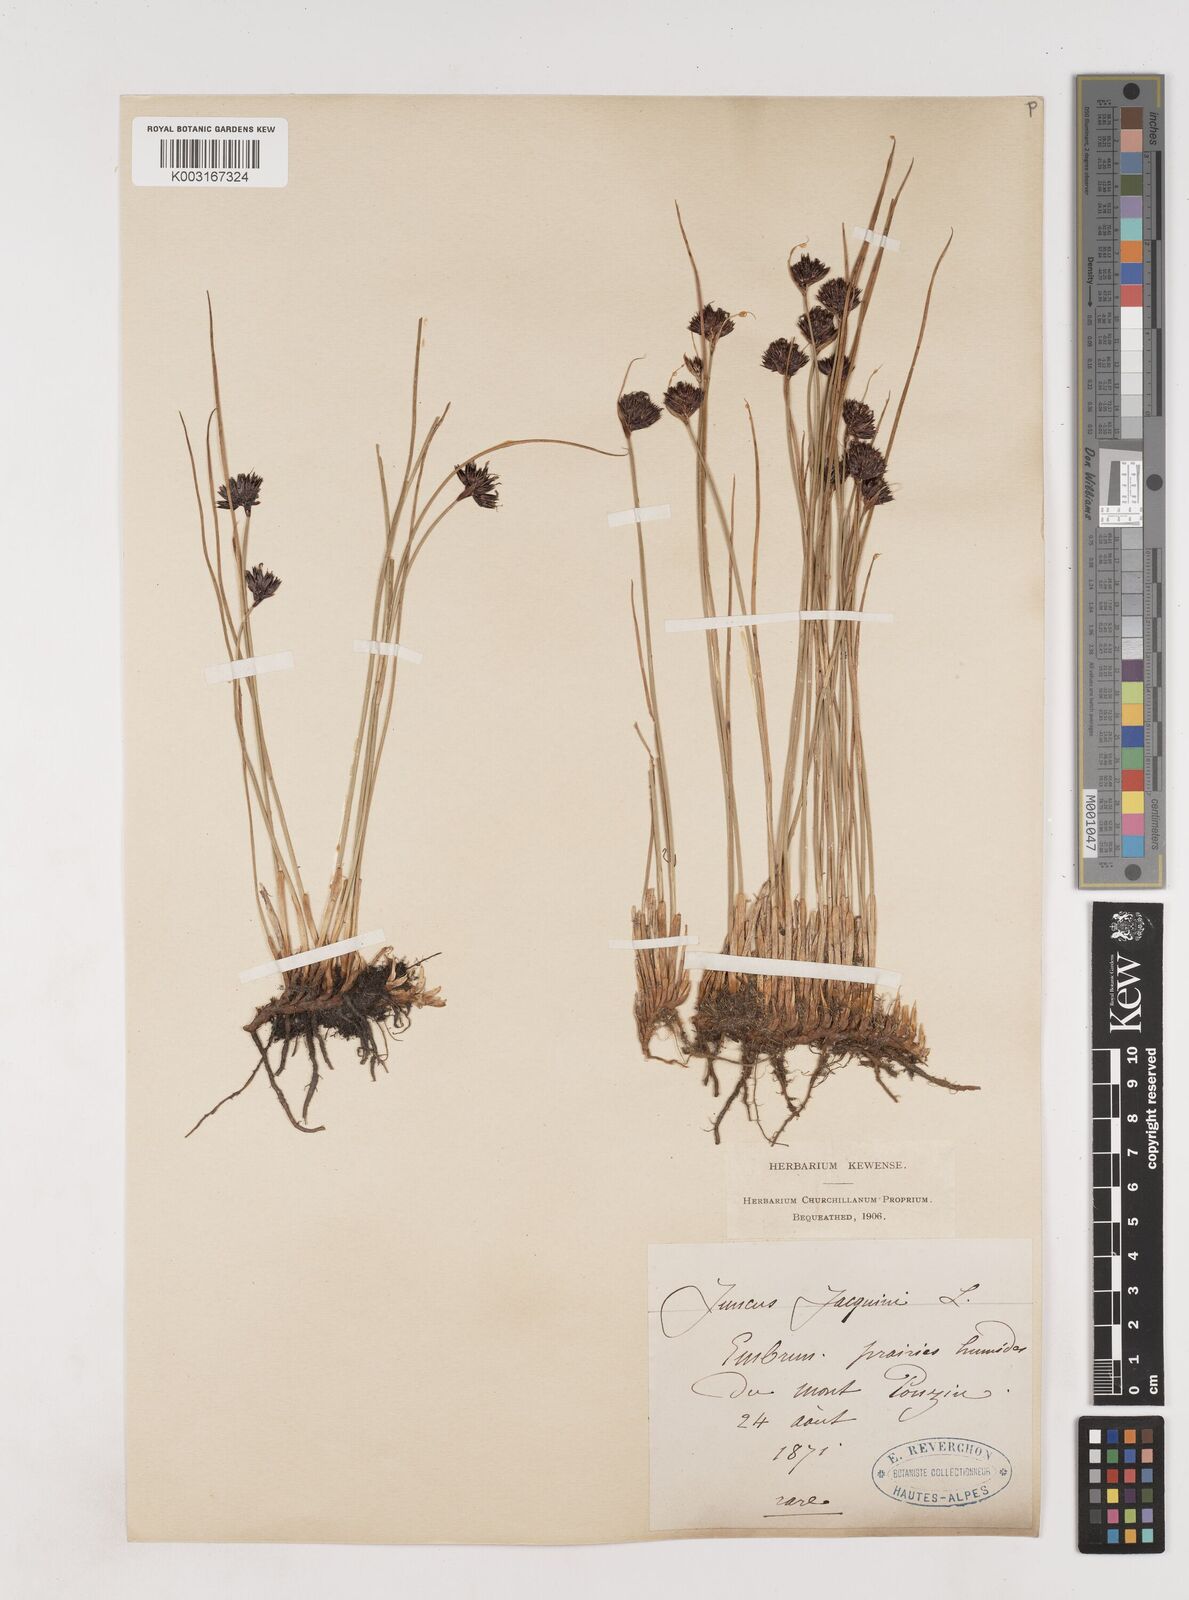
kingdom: Plantae
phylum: Tracheophyta
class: Liliopsida
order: Poales
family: Juncaceae
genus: Juncus
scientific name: Juncus jacquinii
